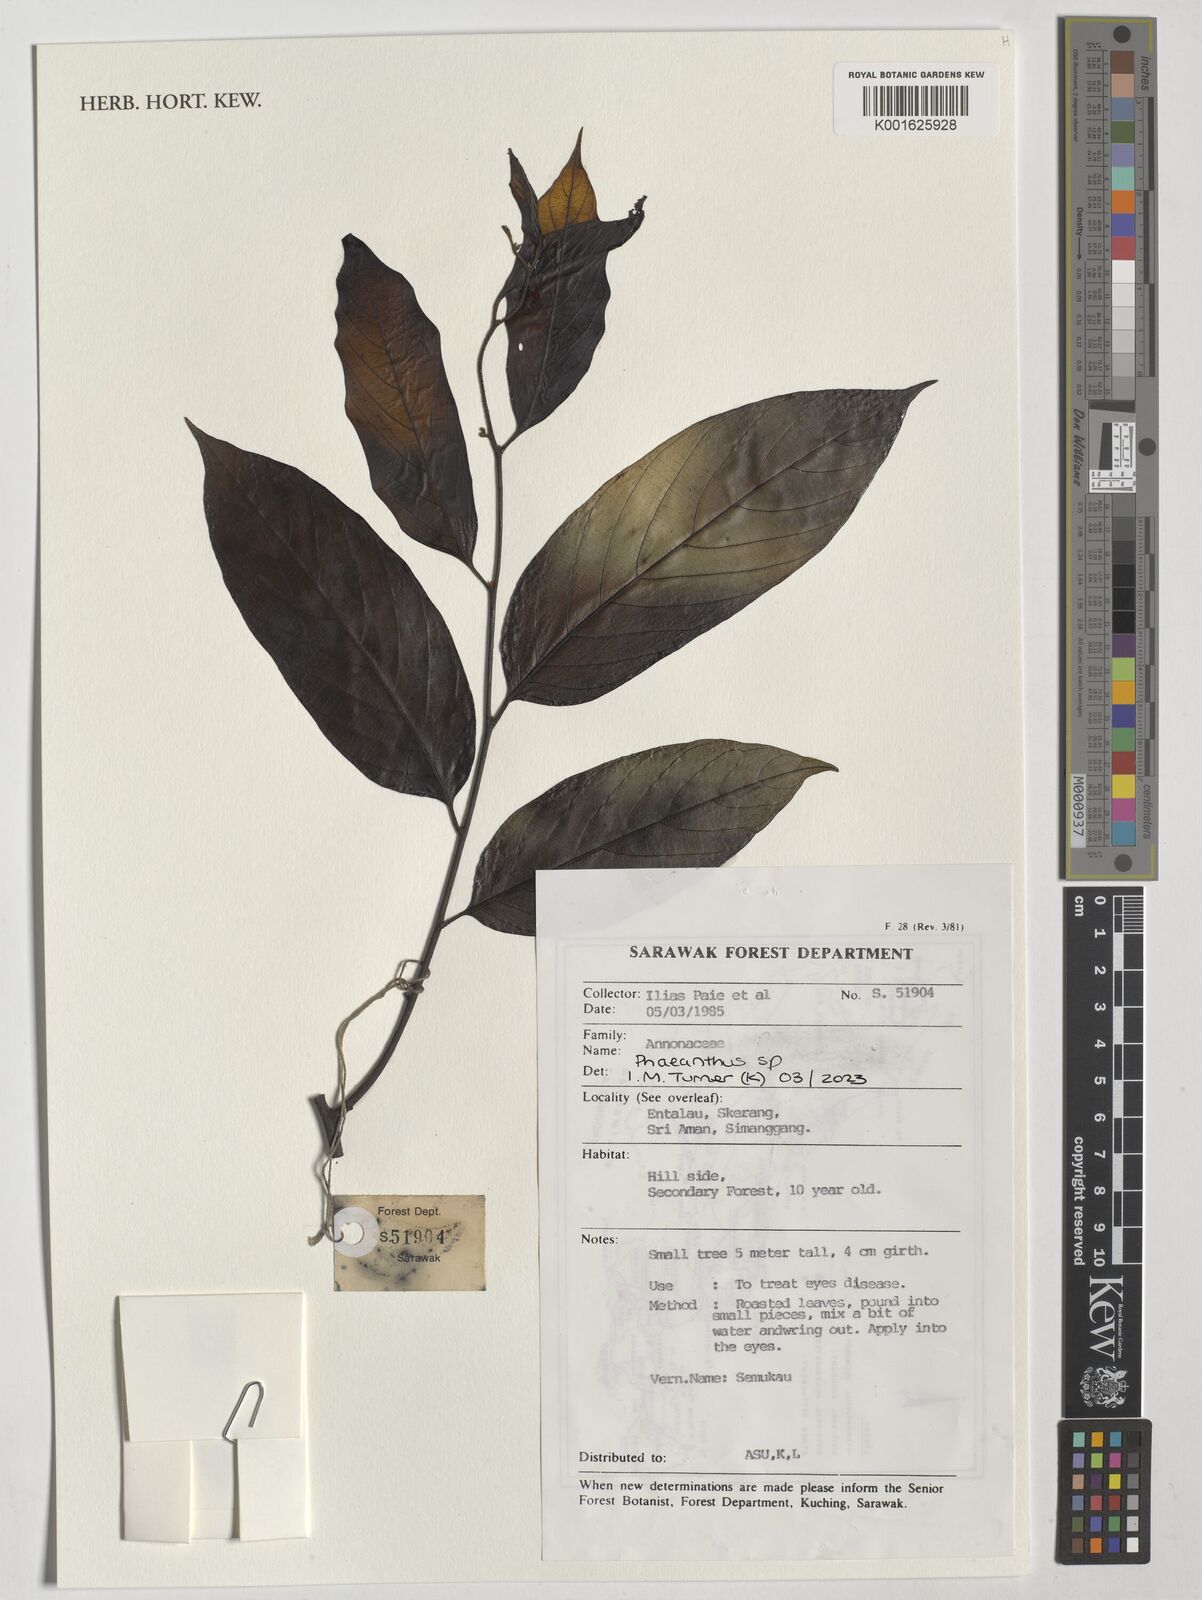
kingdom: Plantae
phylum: Tracheophyta
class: Magnoliopsida
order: Magnoliales
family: Annonaceae
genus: Phaeanthus
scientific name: Phaeanthus
